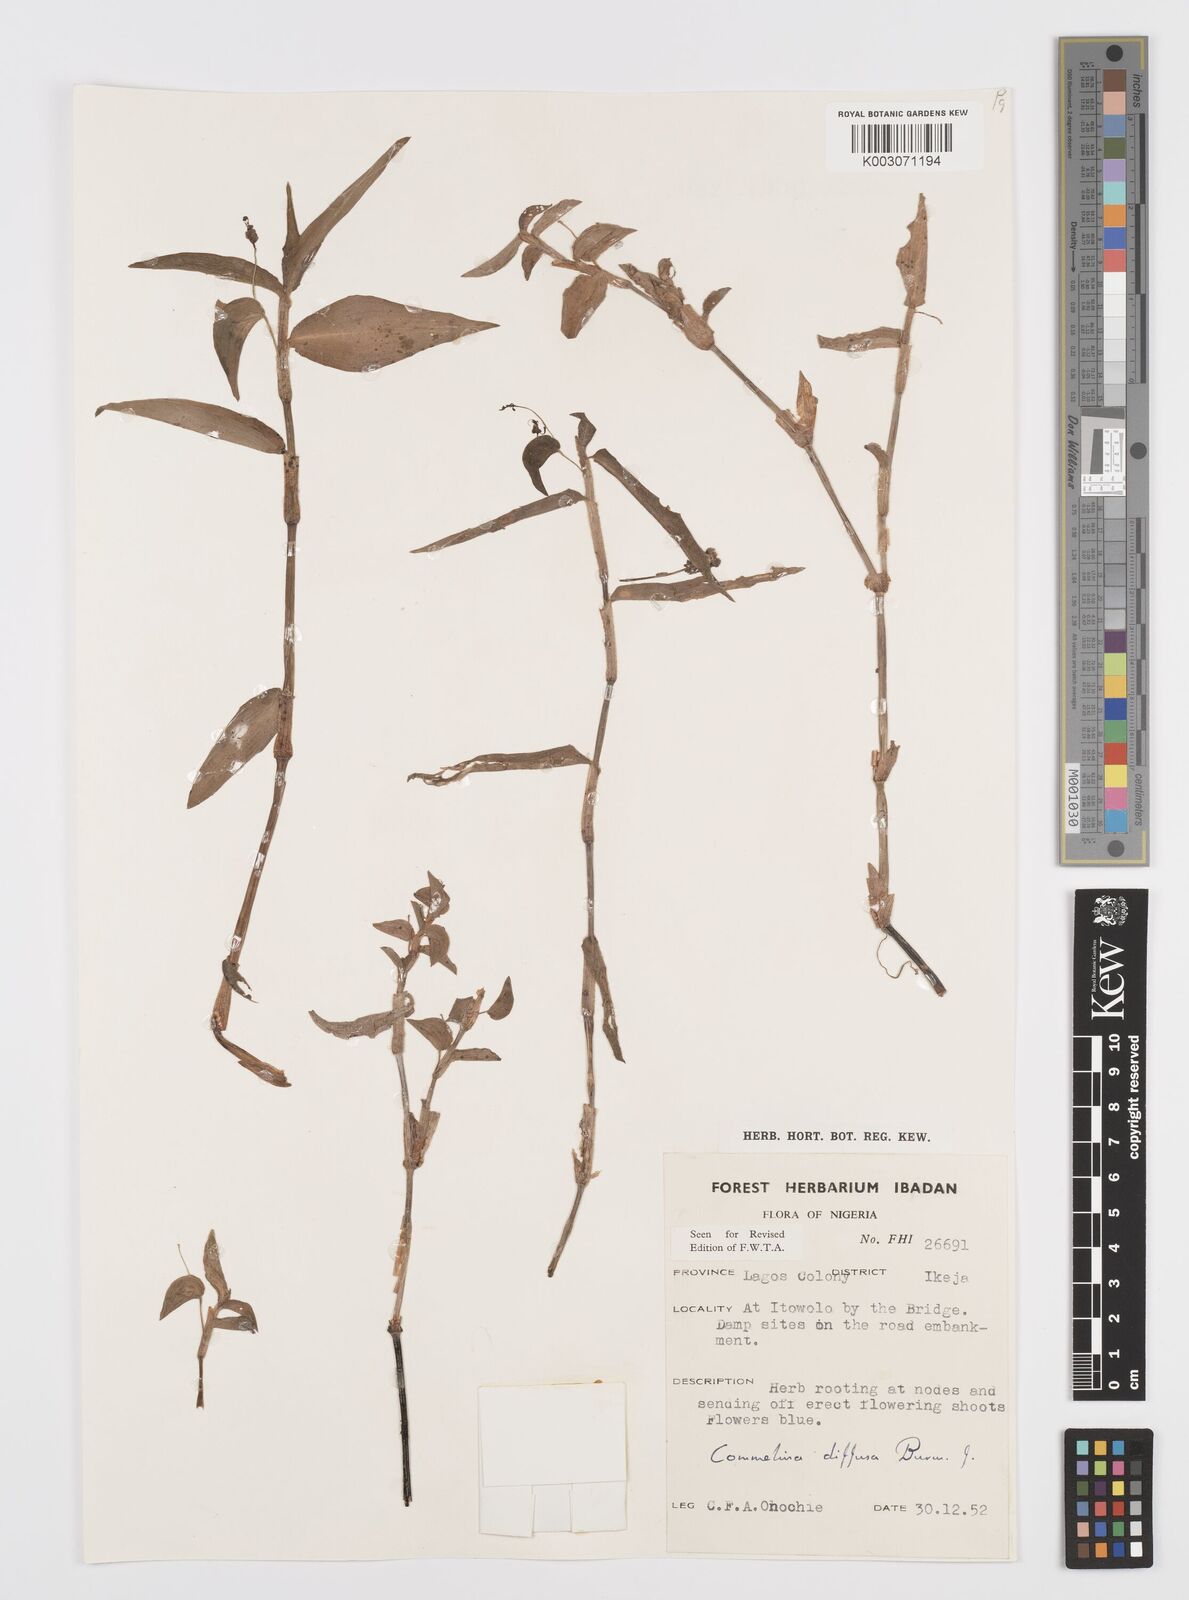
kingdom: Plantae
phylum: Tracheophyta
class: Liliopsida
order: Commelinales
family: Commelinaceae
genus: Commelina
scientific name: Commelina diffusa
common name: Climbing dayflower
